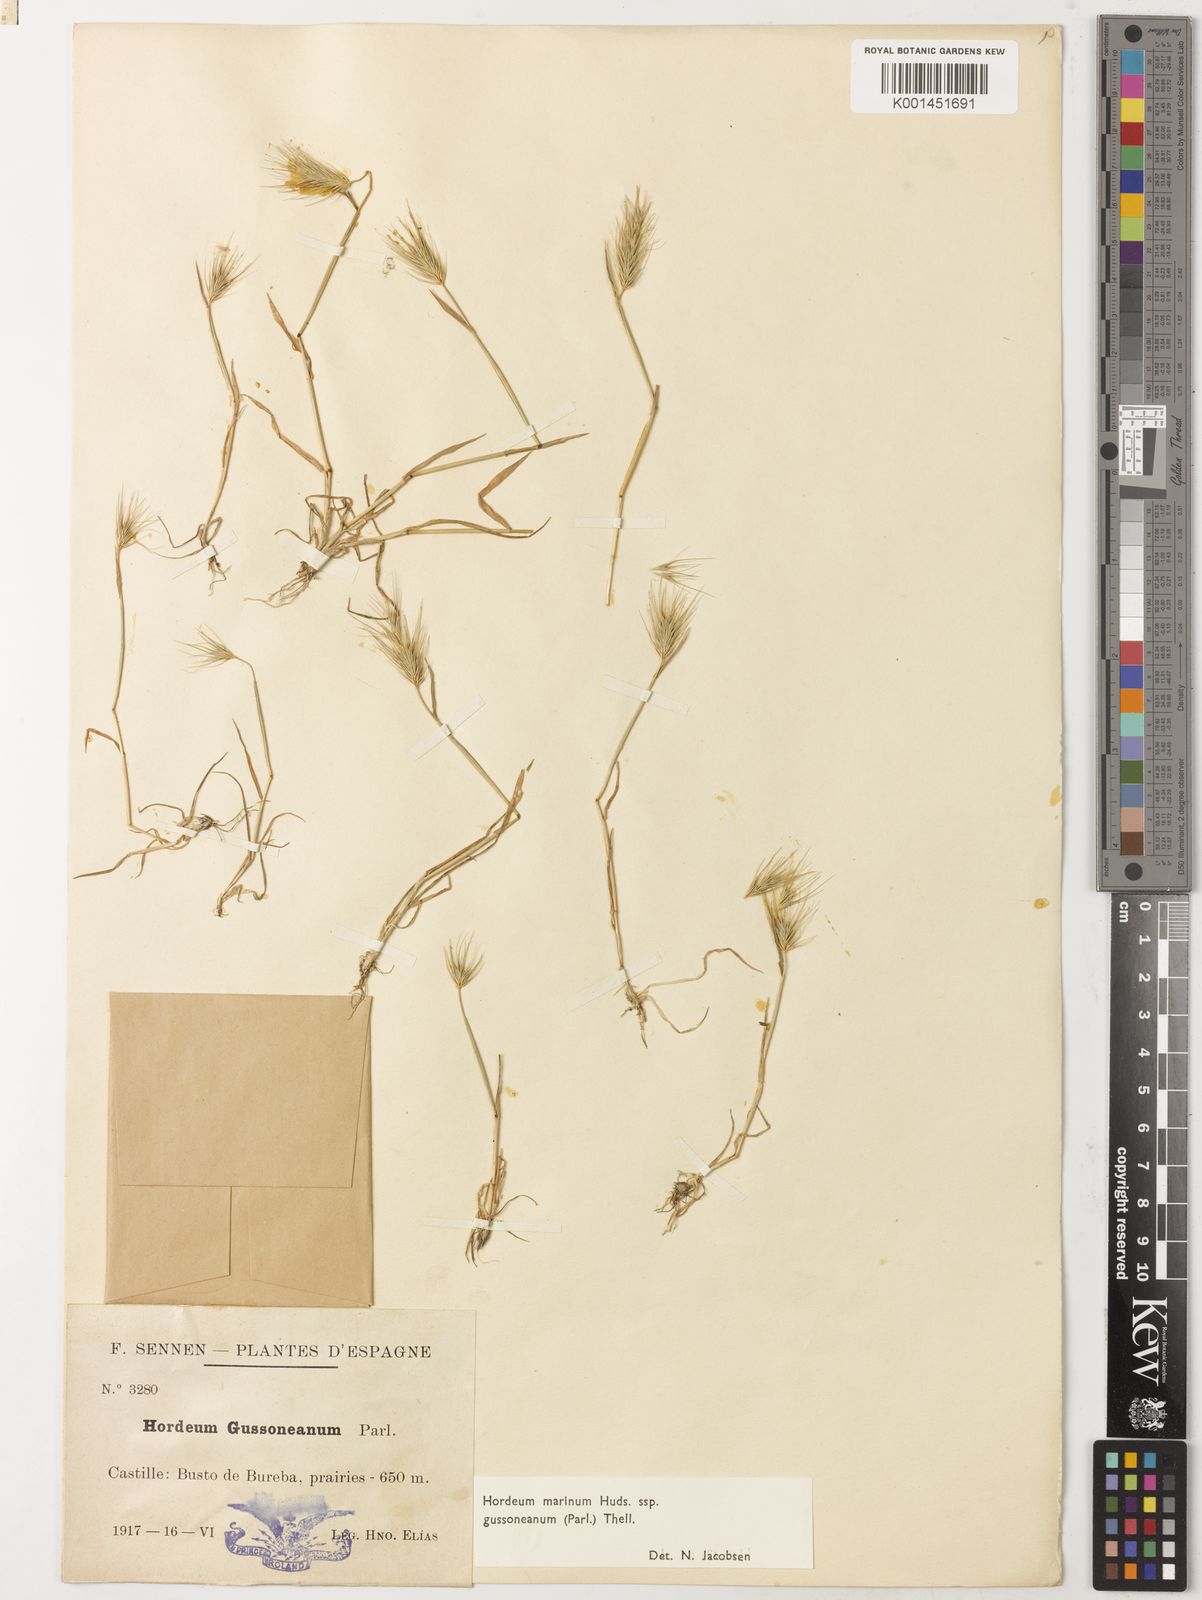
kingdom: Plantae
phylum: Tracheophyta
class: Liliopsida
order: Poales
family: Poaceae
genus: Hordeum
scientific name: Hordeum marinum
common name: Sea barley
